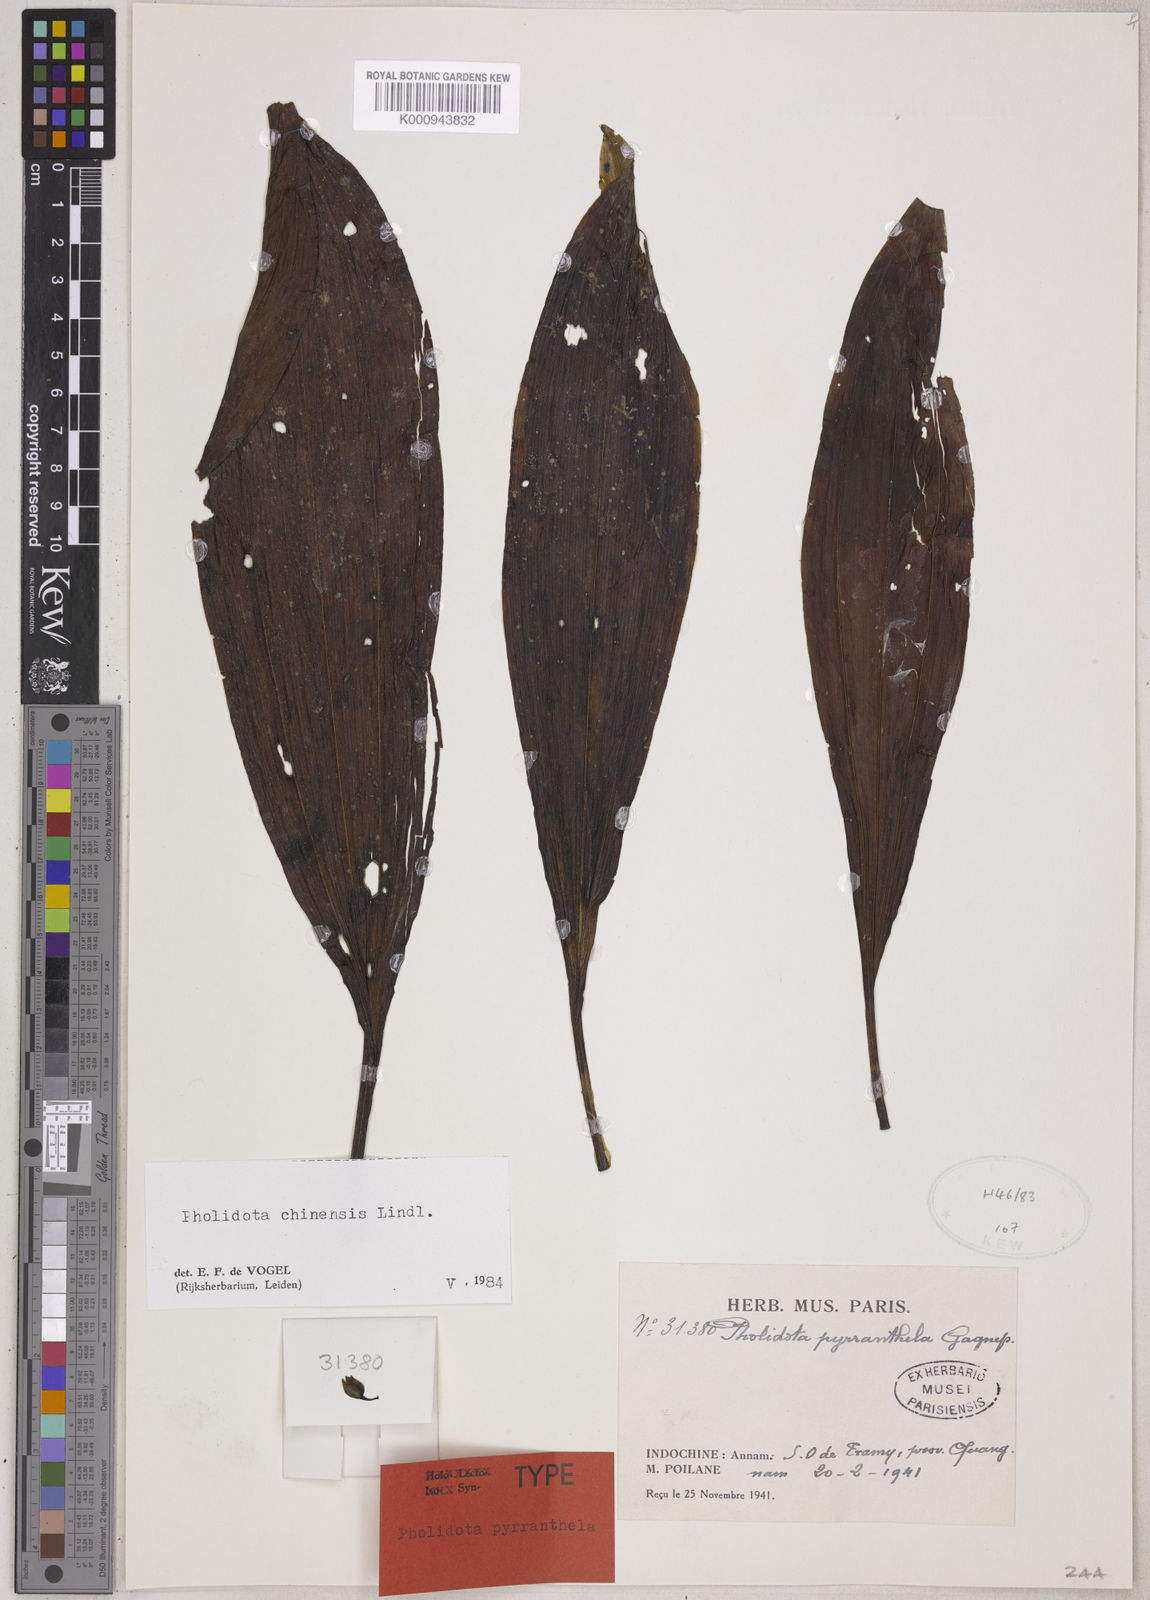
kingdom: Plantae
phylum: Tracheophyta
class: Liliopsida
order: Asparagales
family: Orchidaceae
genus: Coelogyne
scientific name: Coelogyne chinensis
